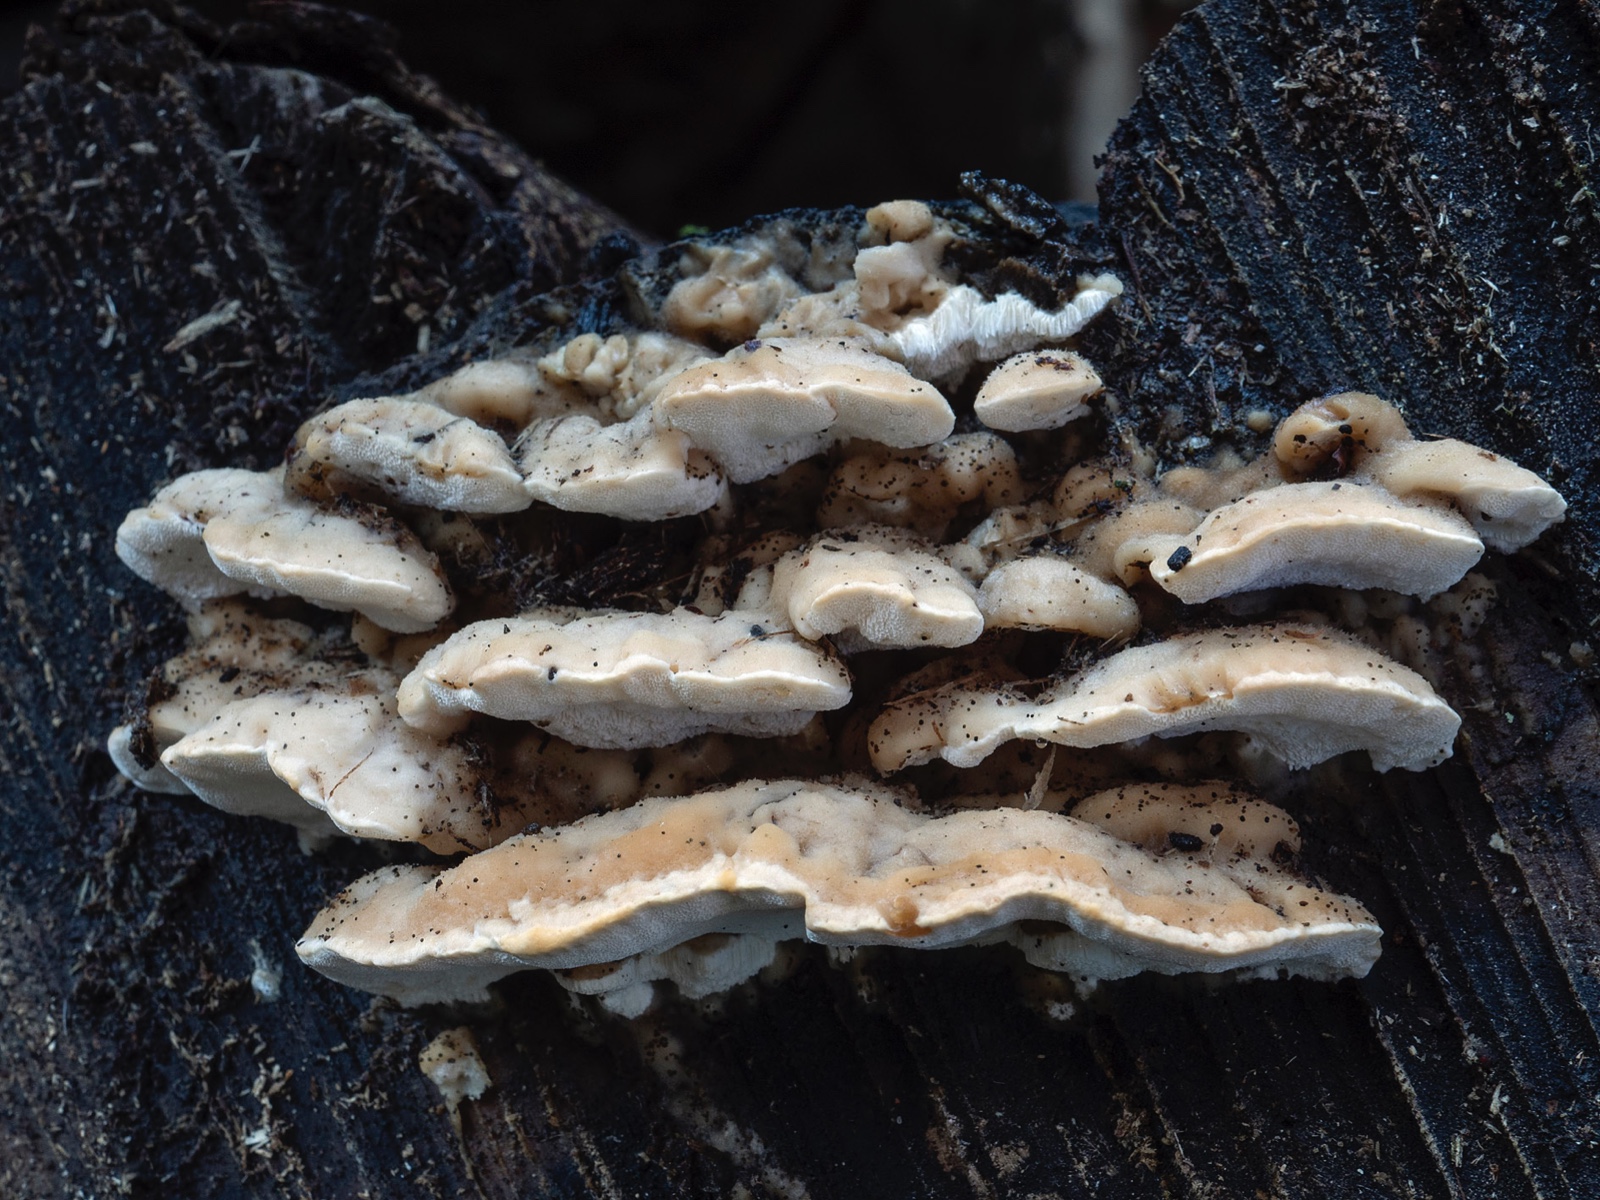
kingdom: Fungi
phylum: Basidiomycota
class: Agaricomycetes
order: Hymenochaetales
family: Oxyporaceae
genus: Oxyporus
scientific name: Oxyporus populinus
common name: sammenvokset trylleporesvamp
